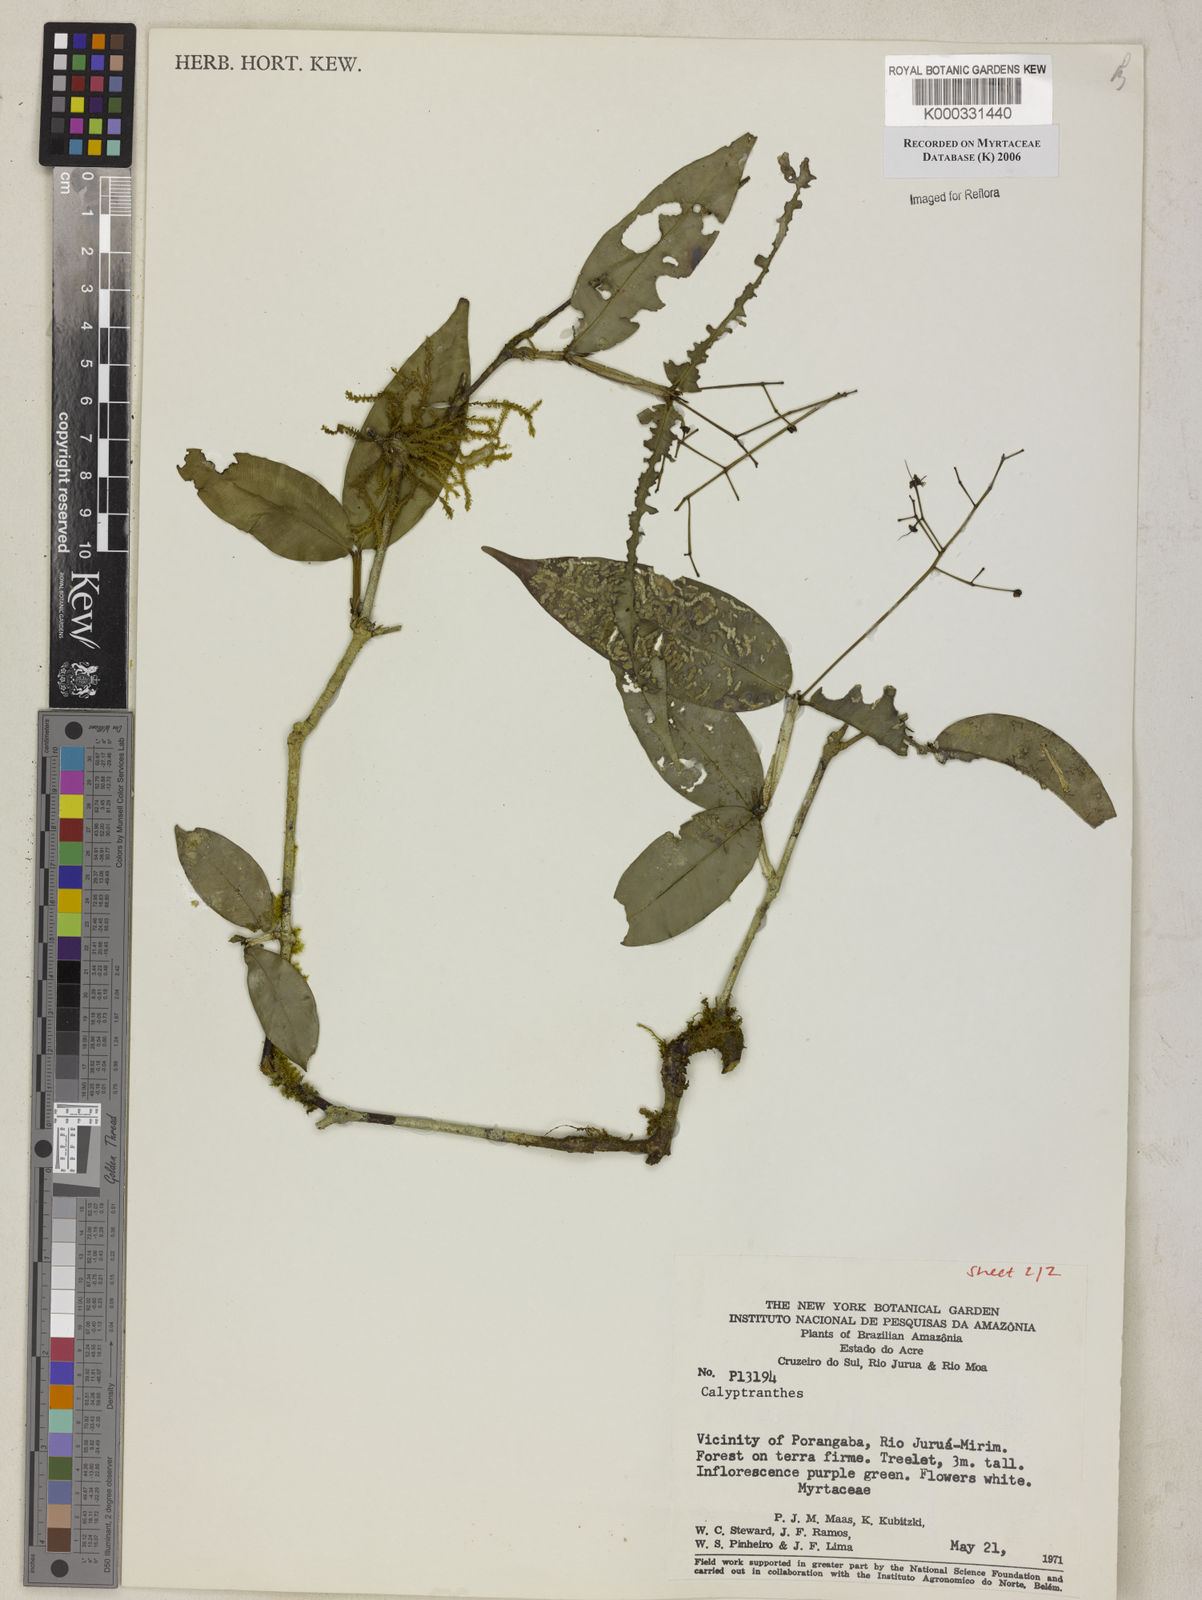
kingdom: Plantae
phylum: Tracheophyta
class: Magnoliopsida
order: Myrtales
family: Myrtaceae
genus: Calyptranthes
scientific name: Calyptranthes
